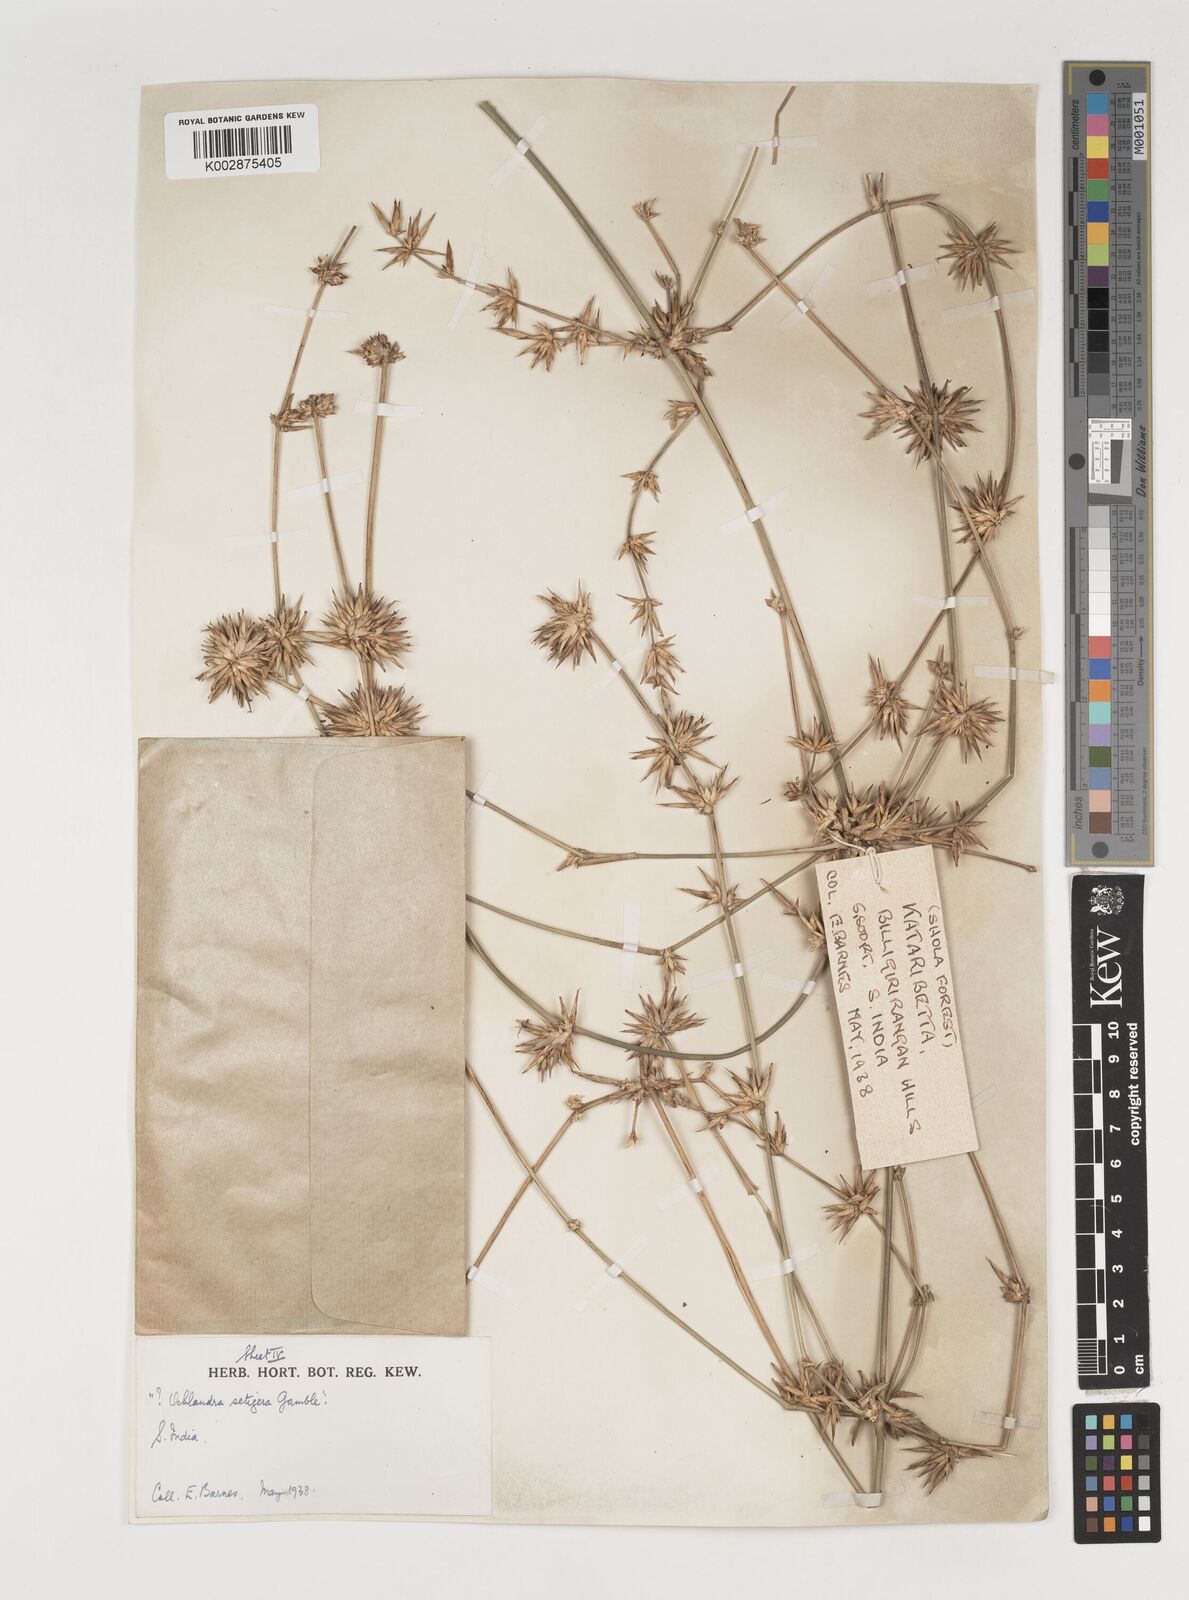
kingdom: Plantae
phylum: Tracheophyta
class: Liliopsida
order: Poales
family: Poaceae
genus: Dendrocalamus
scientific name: Dendrocalamus
